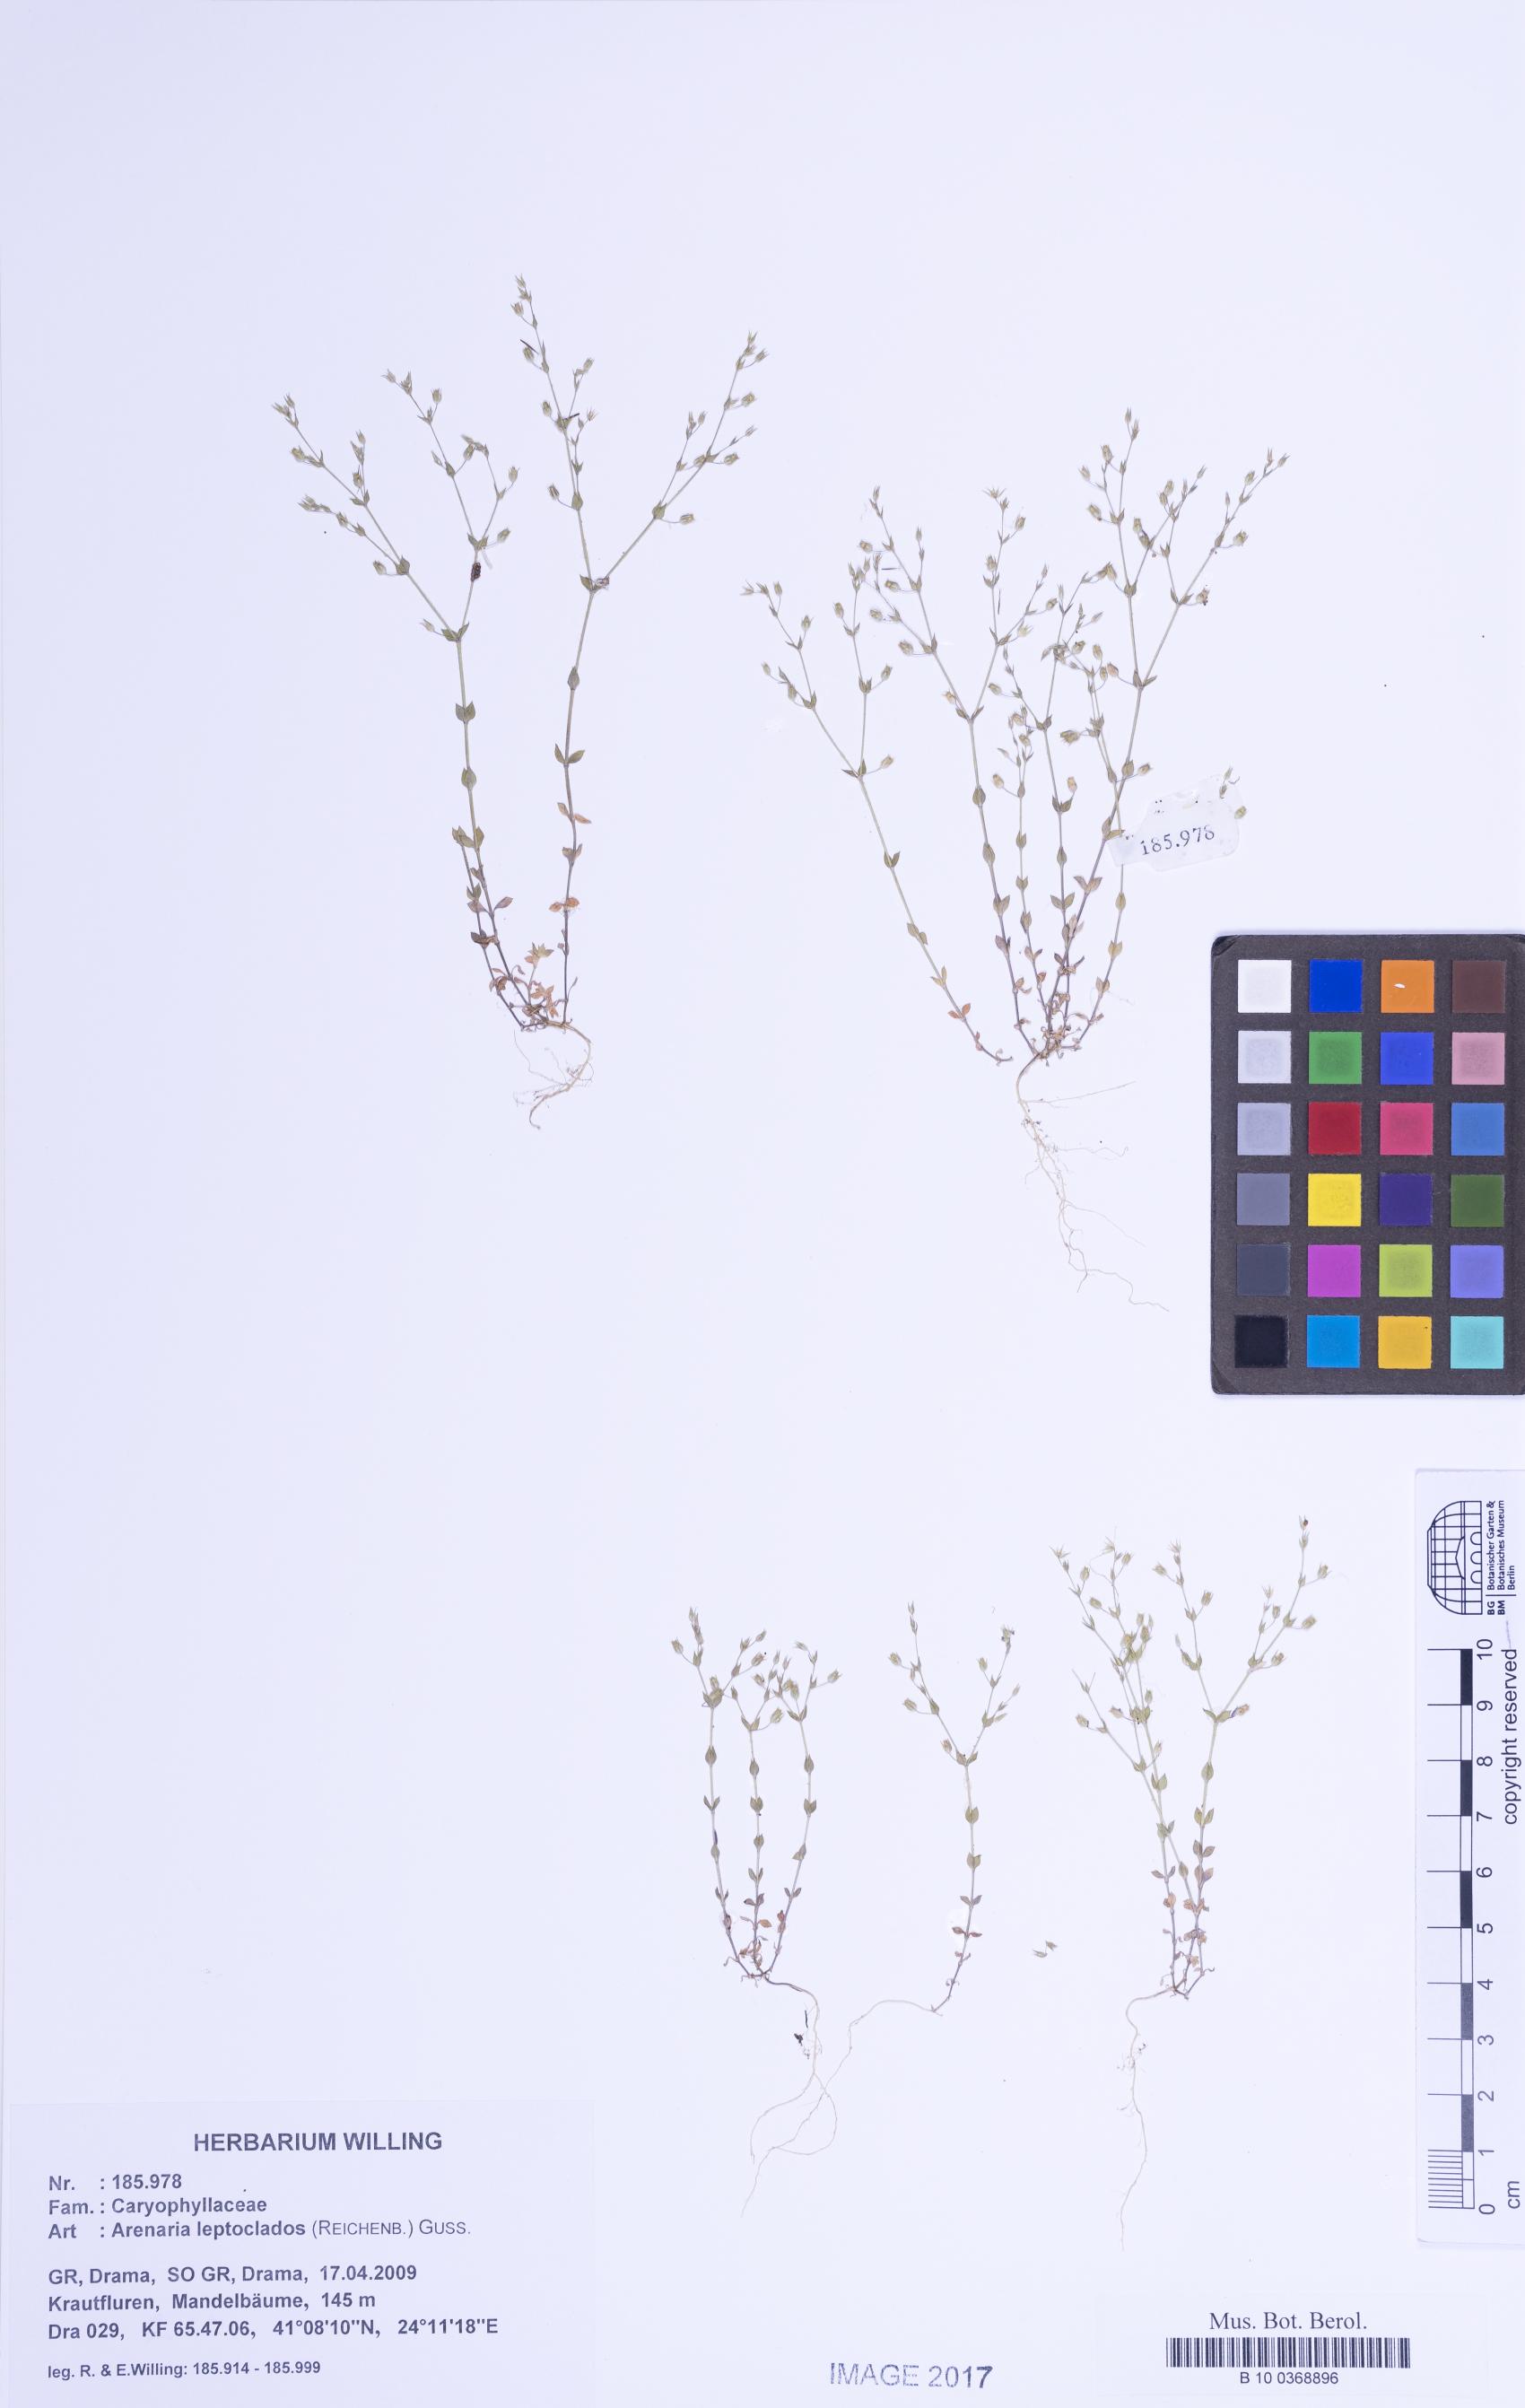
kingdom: Plantae
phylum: Tracheophyta
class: Magnoliopsida
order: Caryophyllales
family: Caryophyllaceae
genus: Arenaria
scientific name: Arenaria leptoclados
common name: Thyme-leaved sandwort
